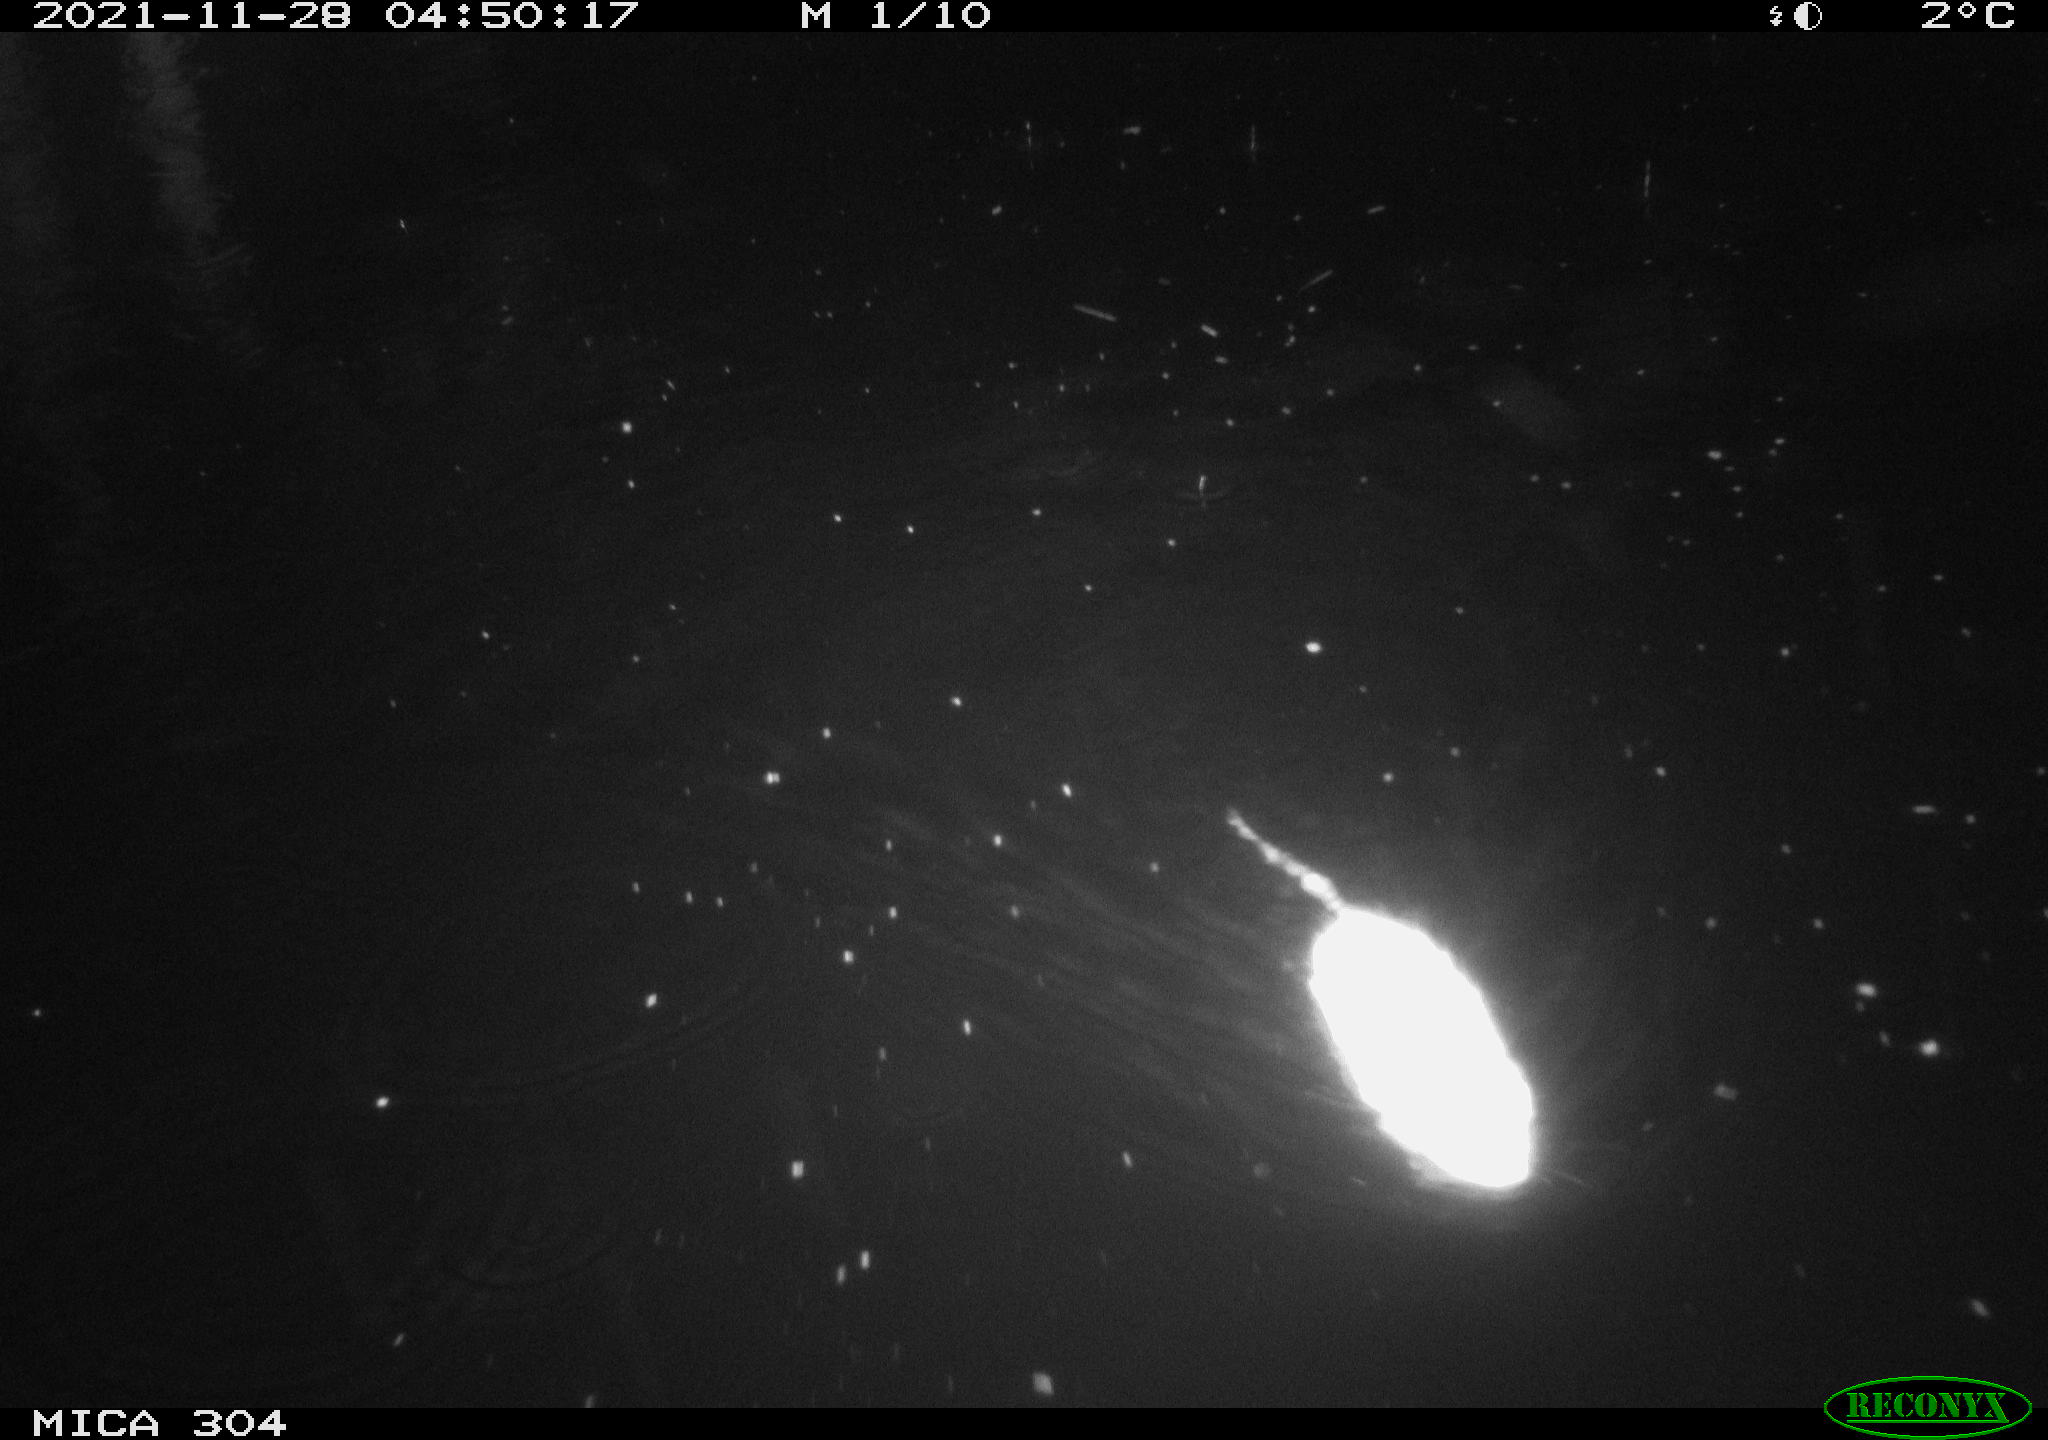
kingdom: Animalia
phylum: Chordata
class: Mammalia
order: Rodentia
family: Muridae
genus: Rattus
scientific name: Rattus norvegicus
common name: Brown rat
